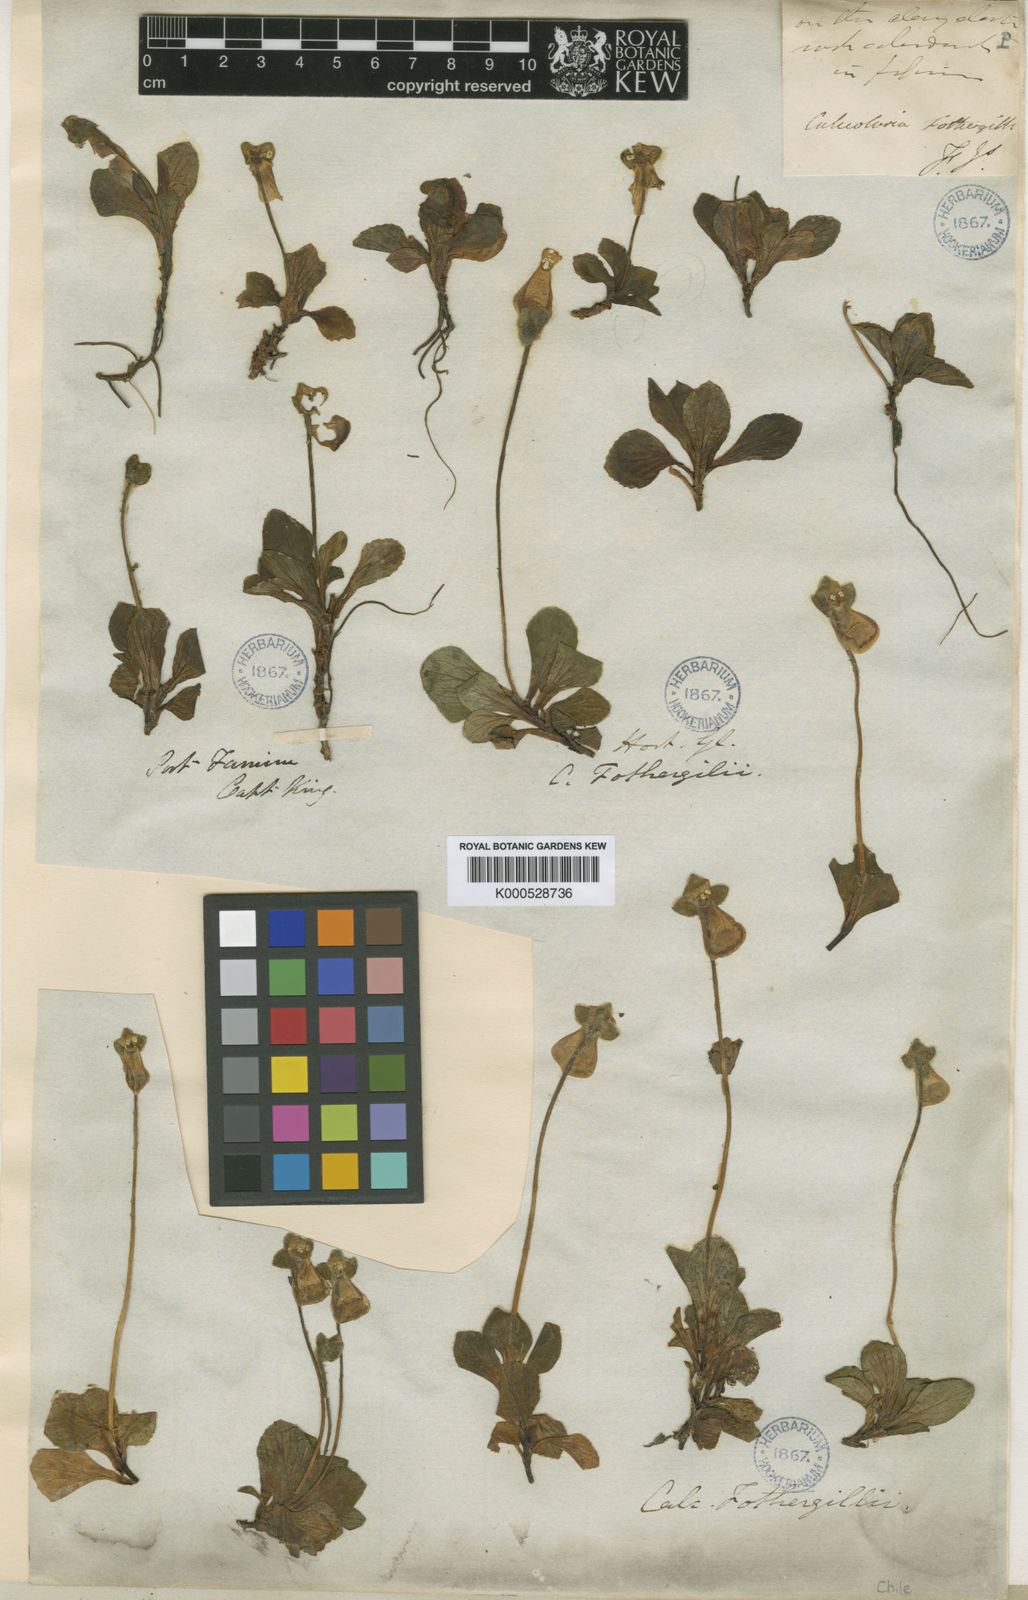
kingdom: Plantae
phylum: Tracheophyta
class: Magnoliopsida
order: Lamiales
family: Calceolariaceae
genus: Calceolaria
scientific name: Calceolaria
